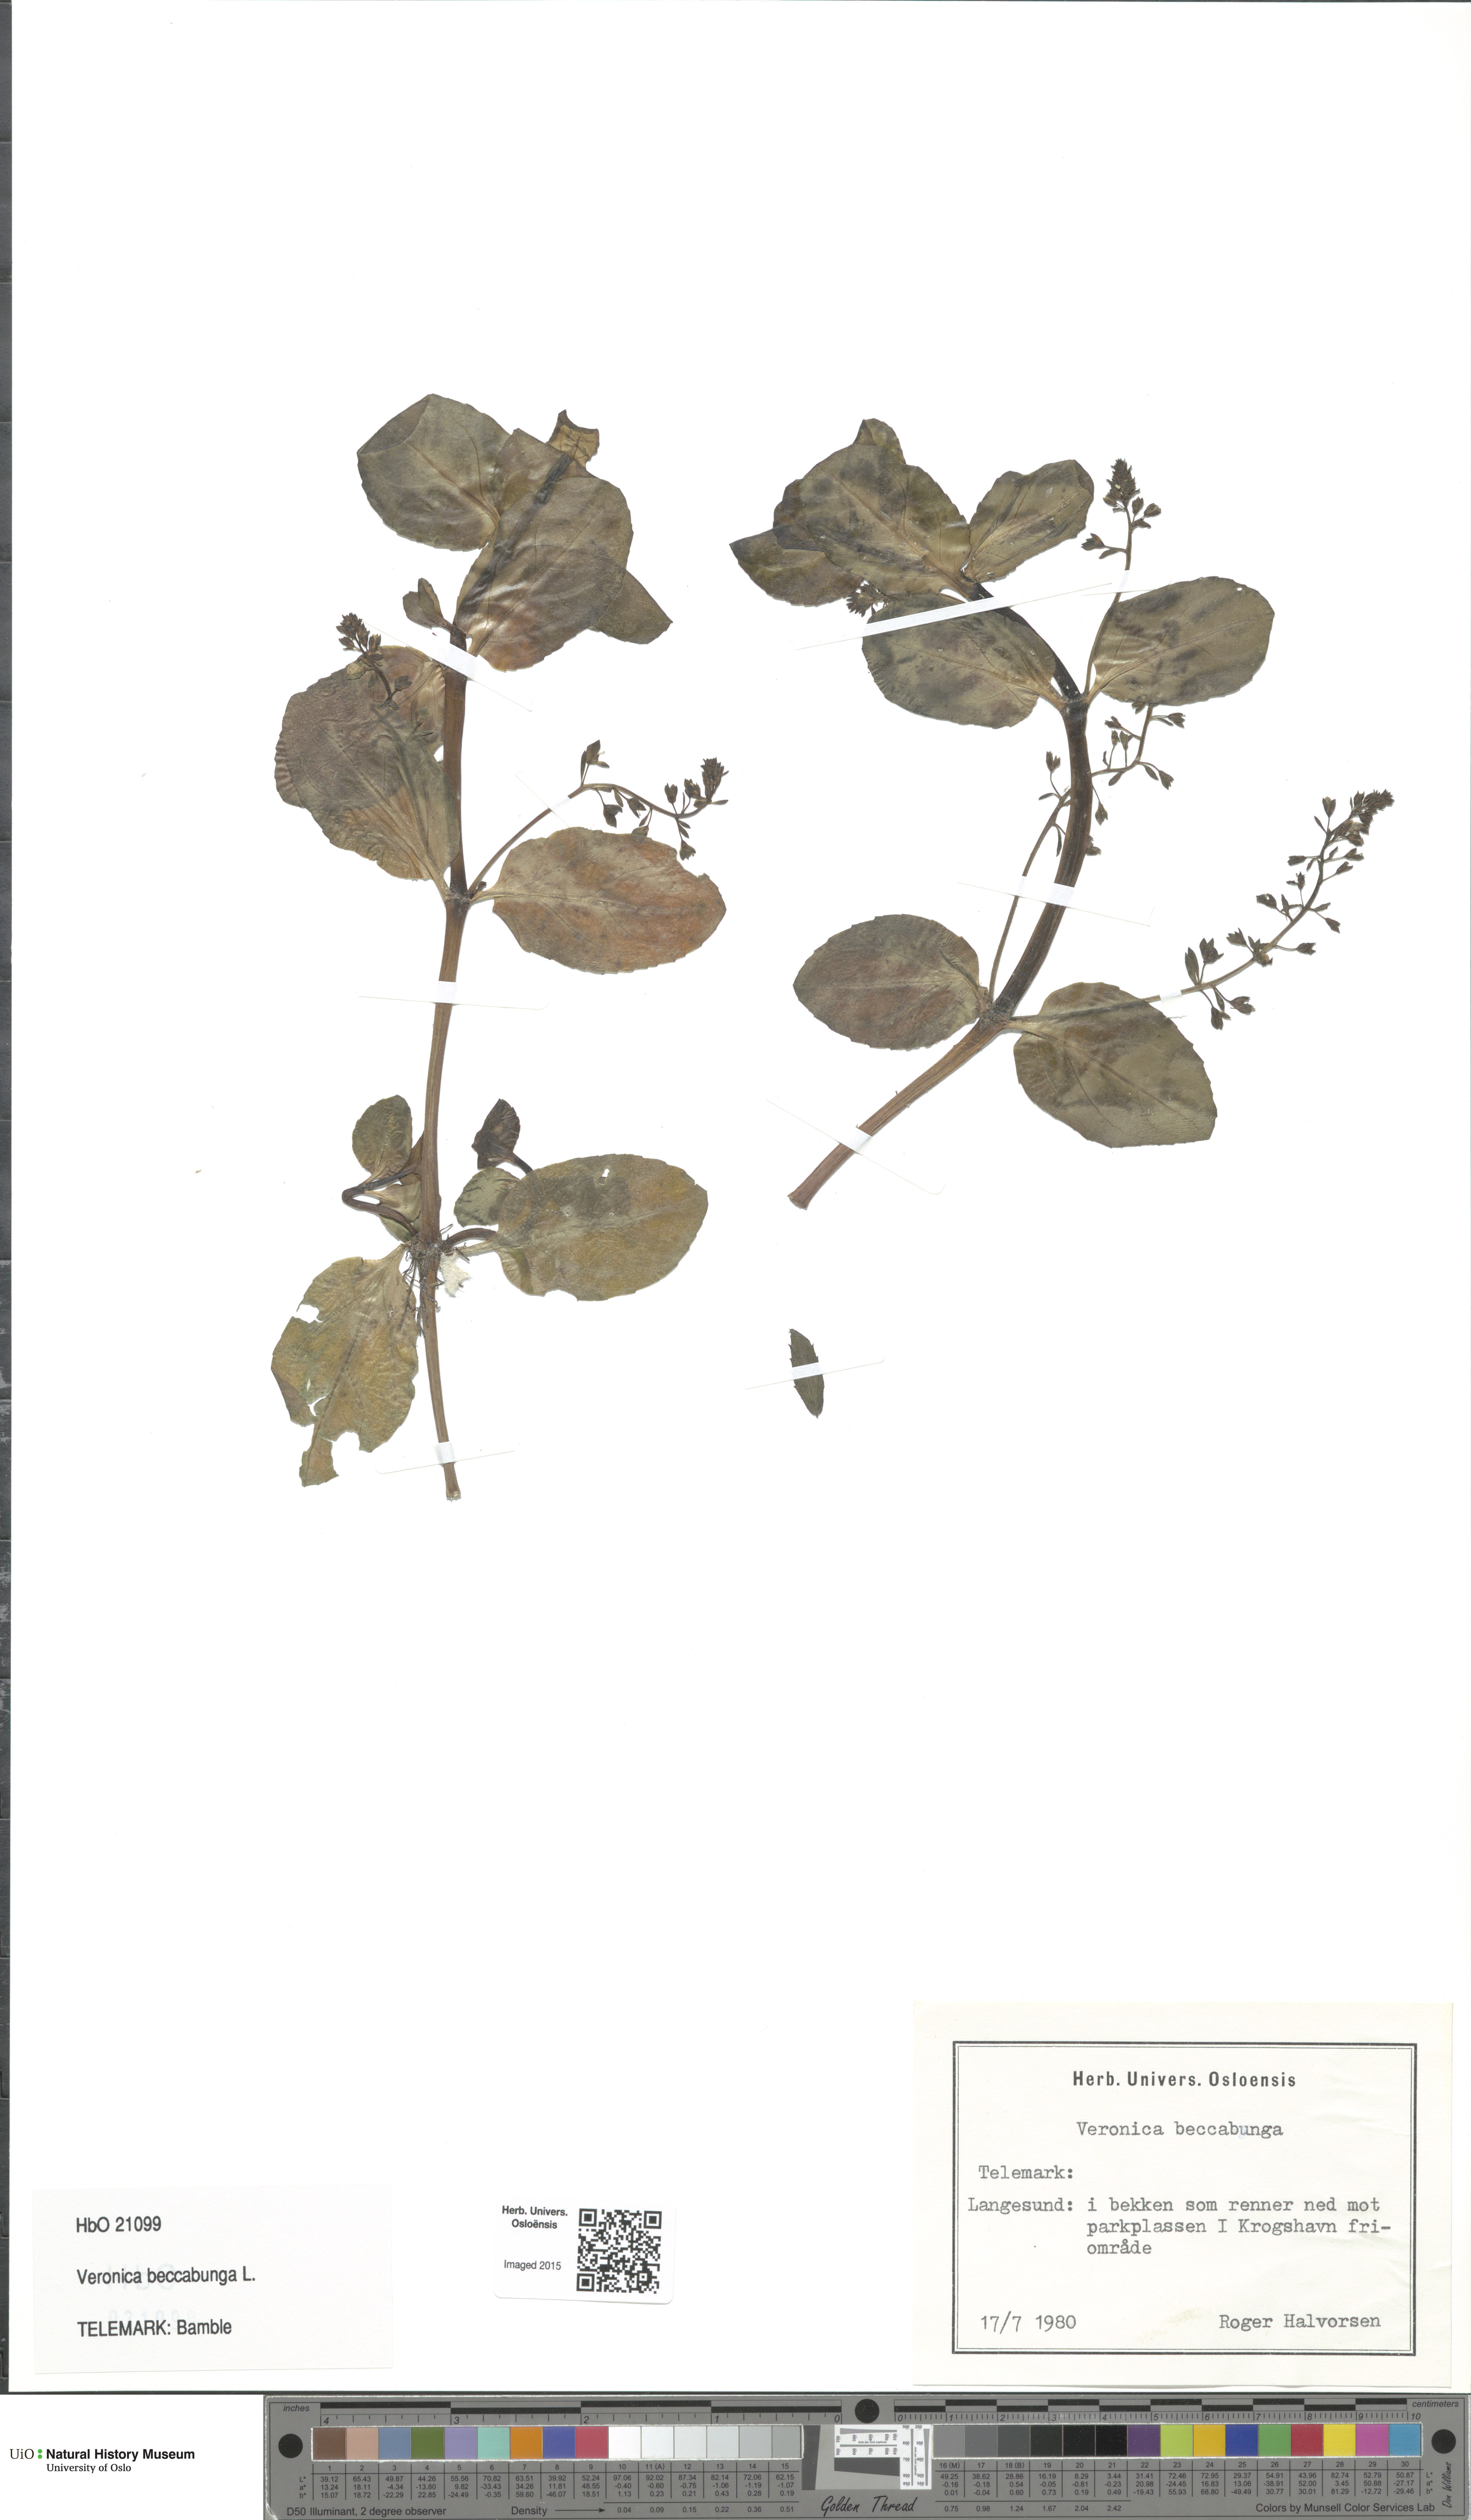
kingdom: Plantae
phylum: Tracheophyta
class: Magnoliopsida
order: Lamiales
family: Plantaginaceae
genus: Veronica
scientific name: Veronica beccabunga
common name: Brooklime
